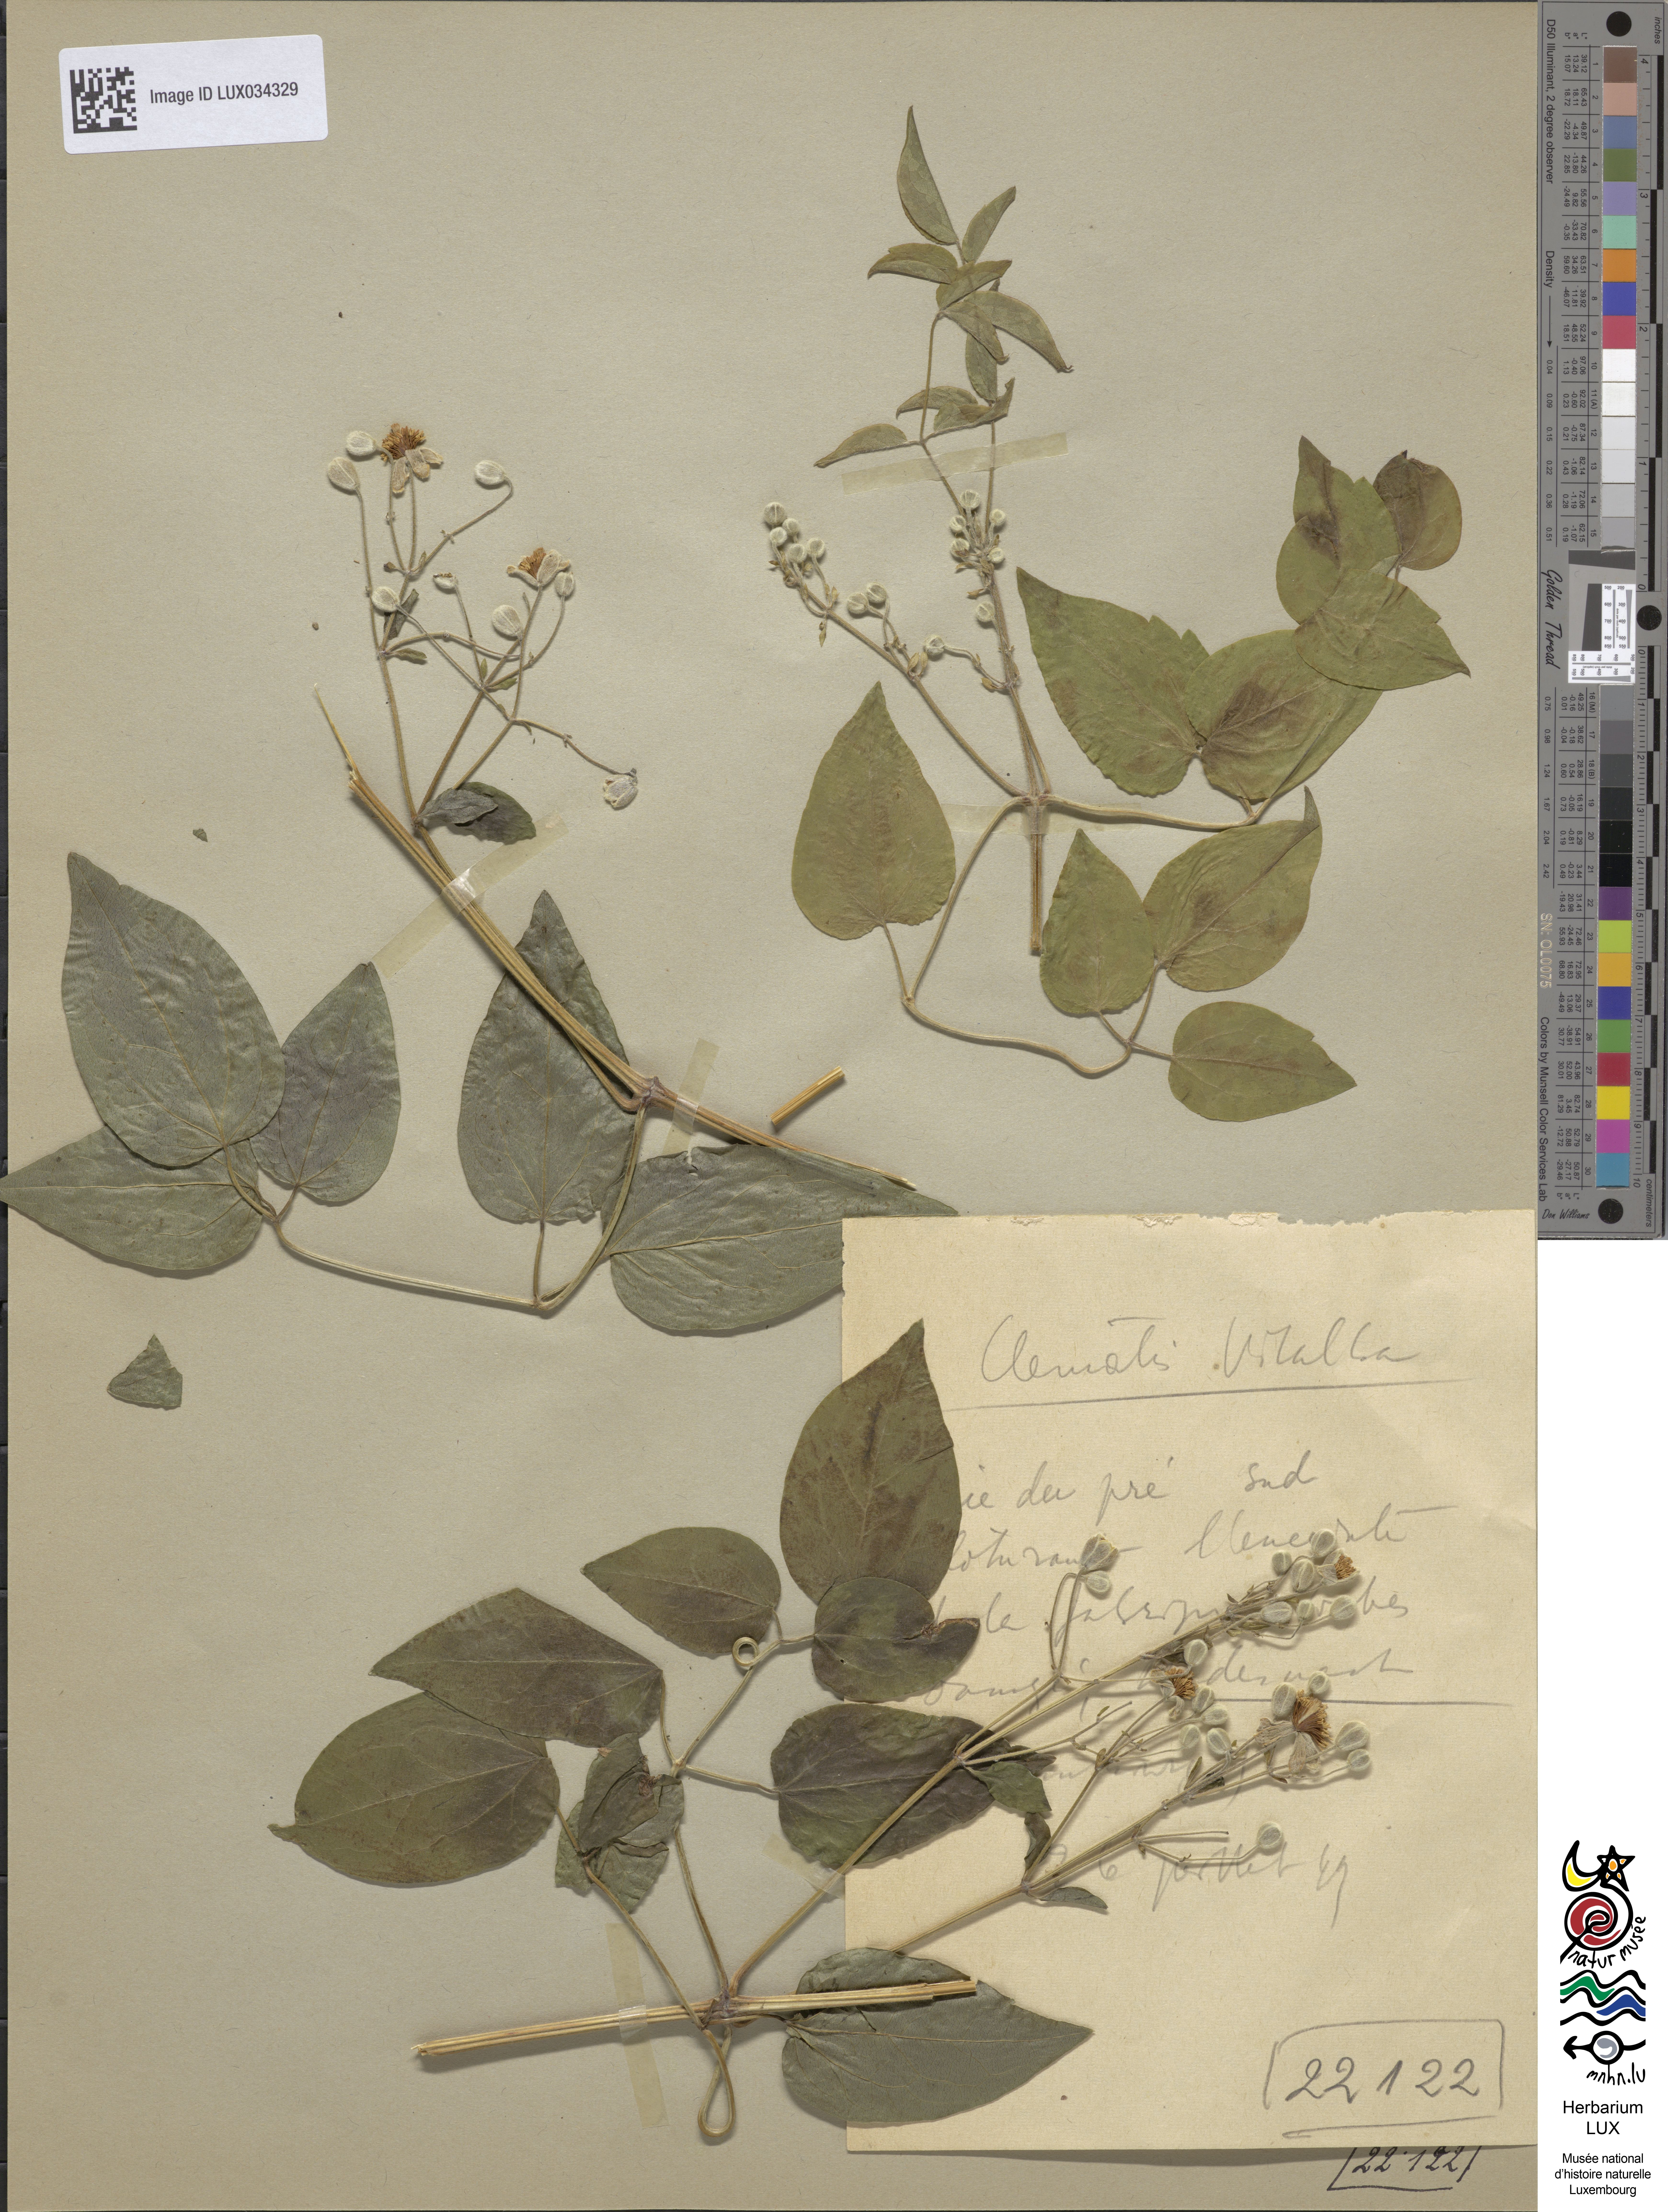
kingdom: Plantae
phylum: Tracheophyta
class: Magnoliopsida
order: Ranunculales
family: Ranunculaceae
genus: Clematis
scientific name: Clematis vitalba
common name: Evergreen clematis
